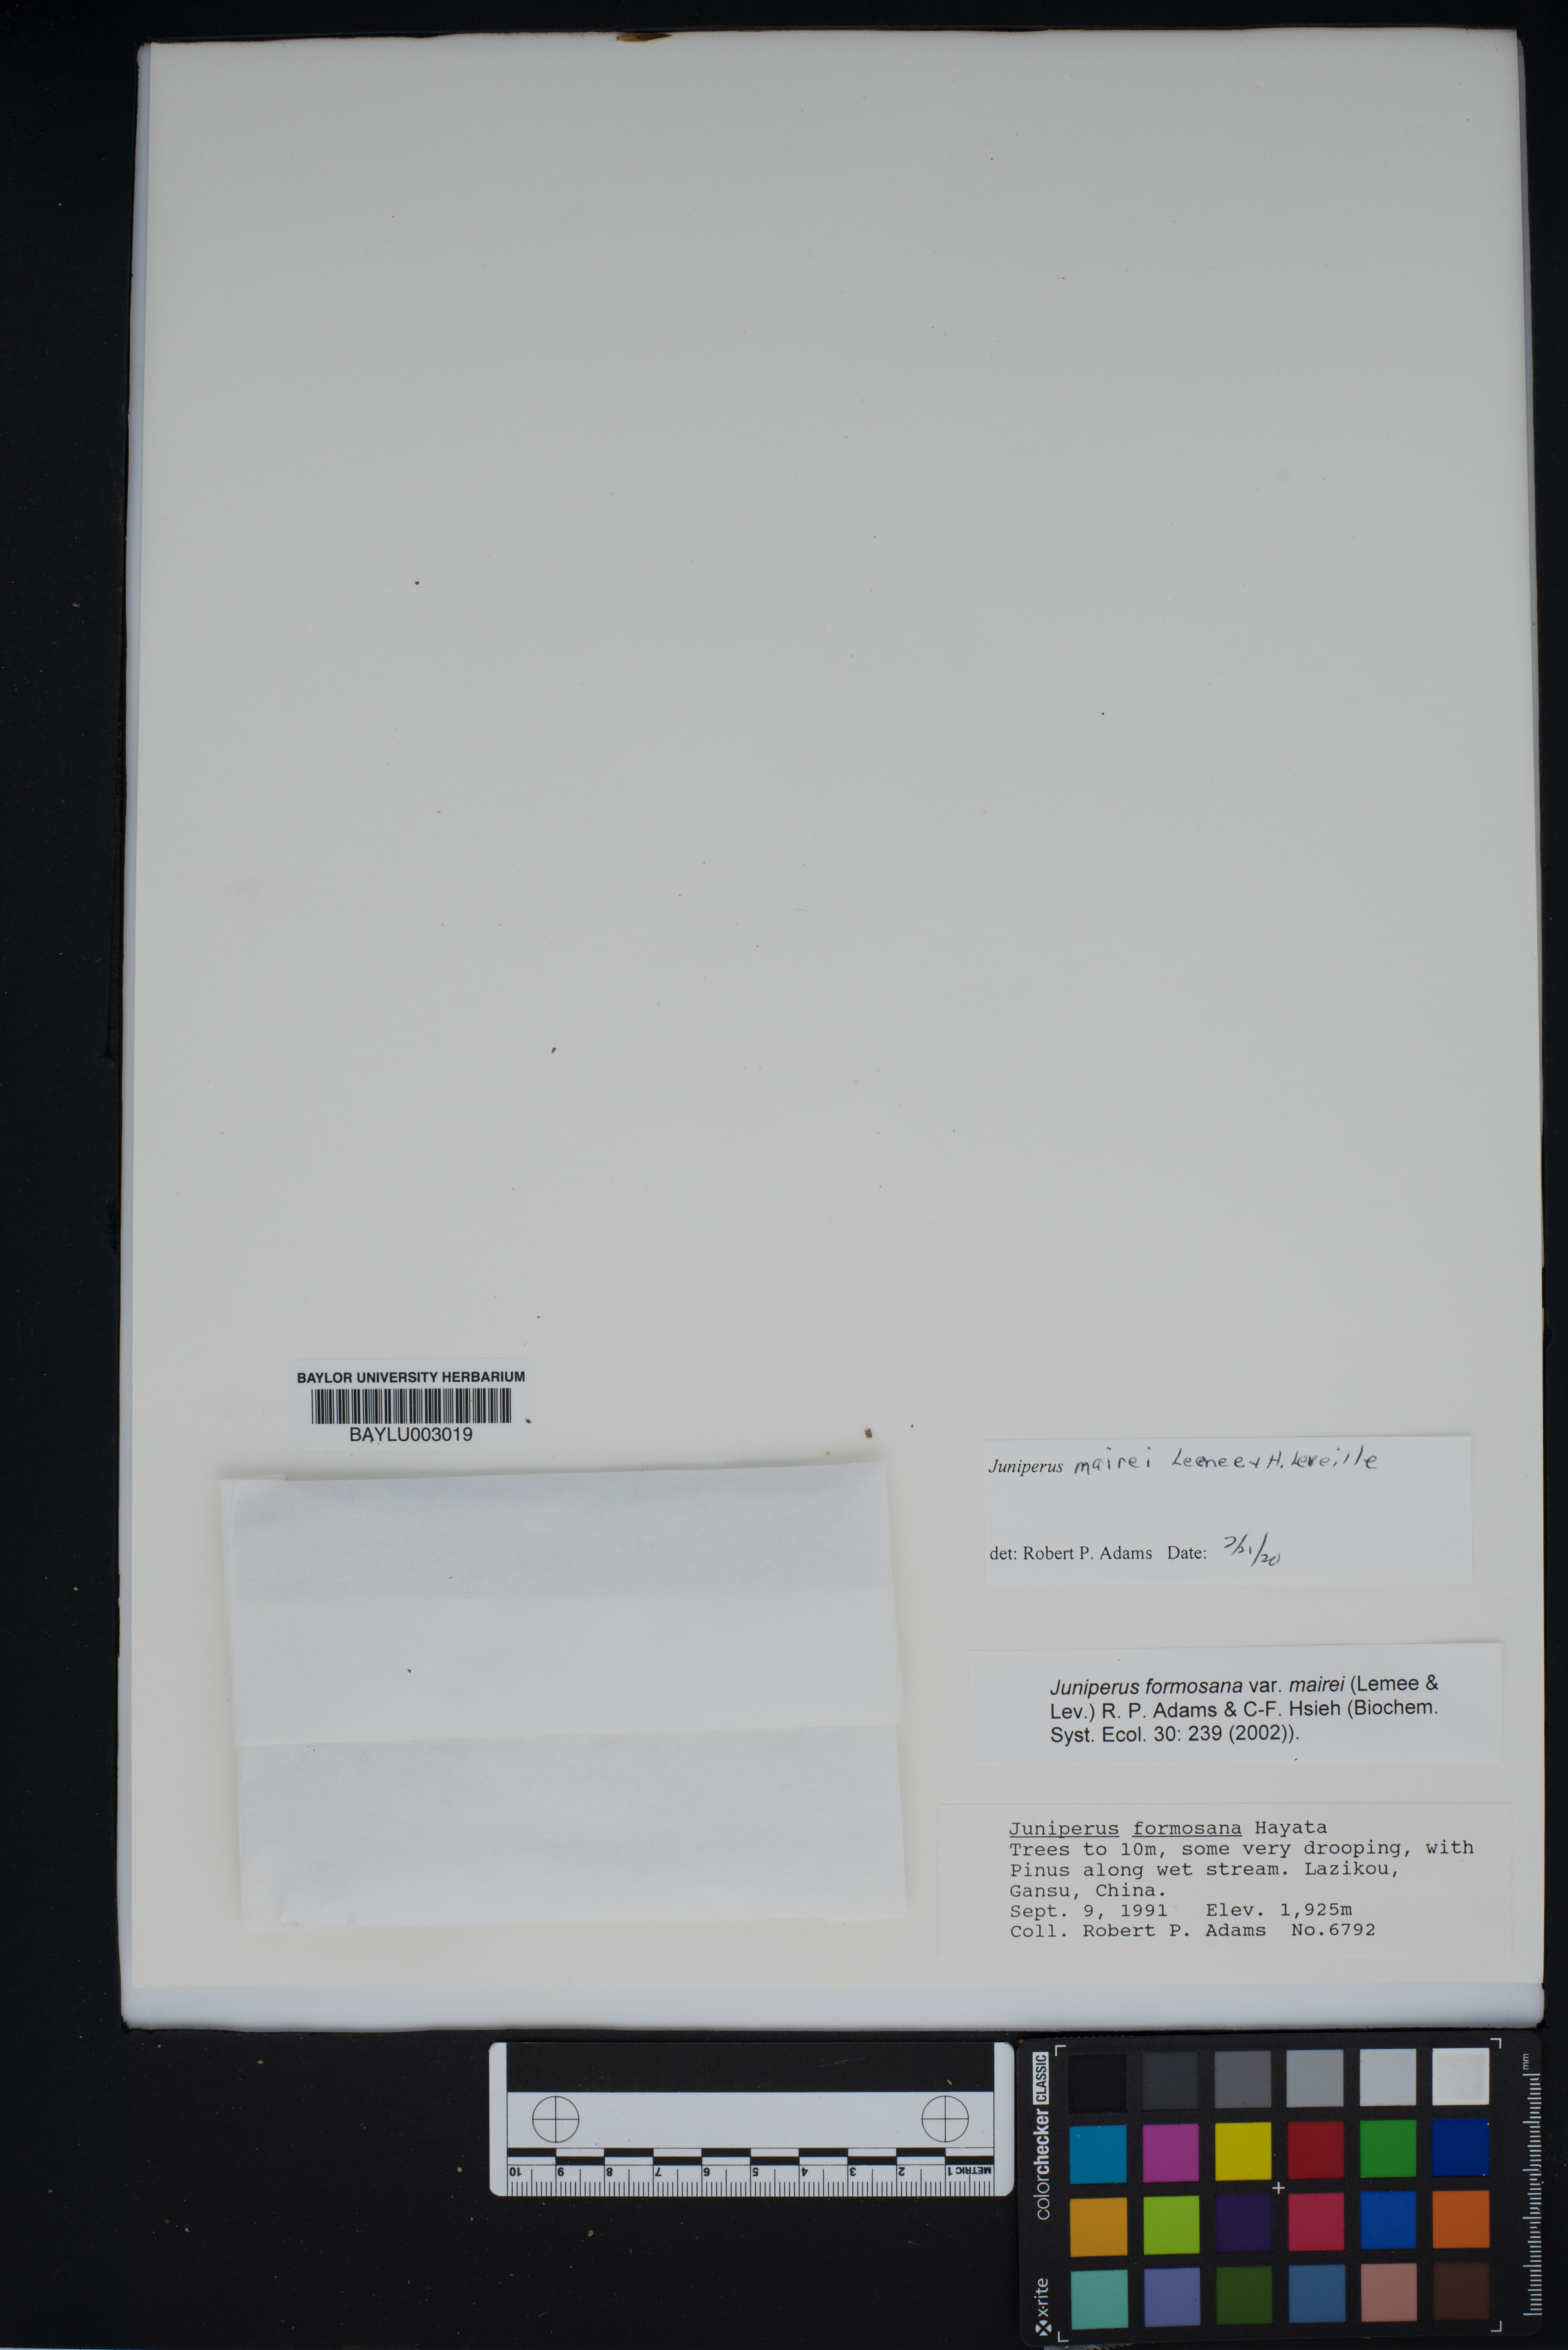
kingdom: Plantae
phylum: Tracheophyta
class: Pinopsida
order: Pinales
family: Cupressaceae
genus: Juniperus
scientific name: Juniperus formosana
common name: Formosan juniper
